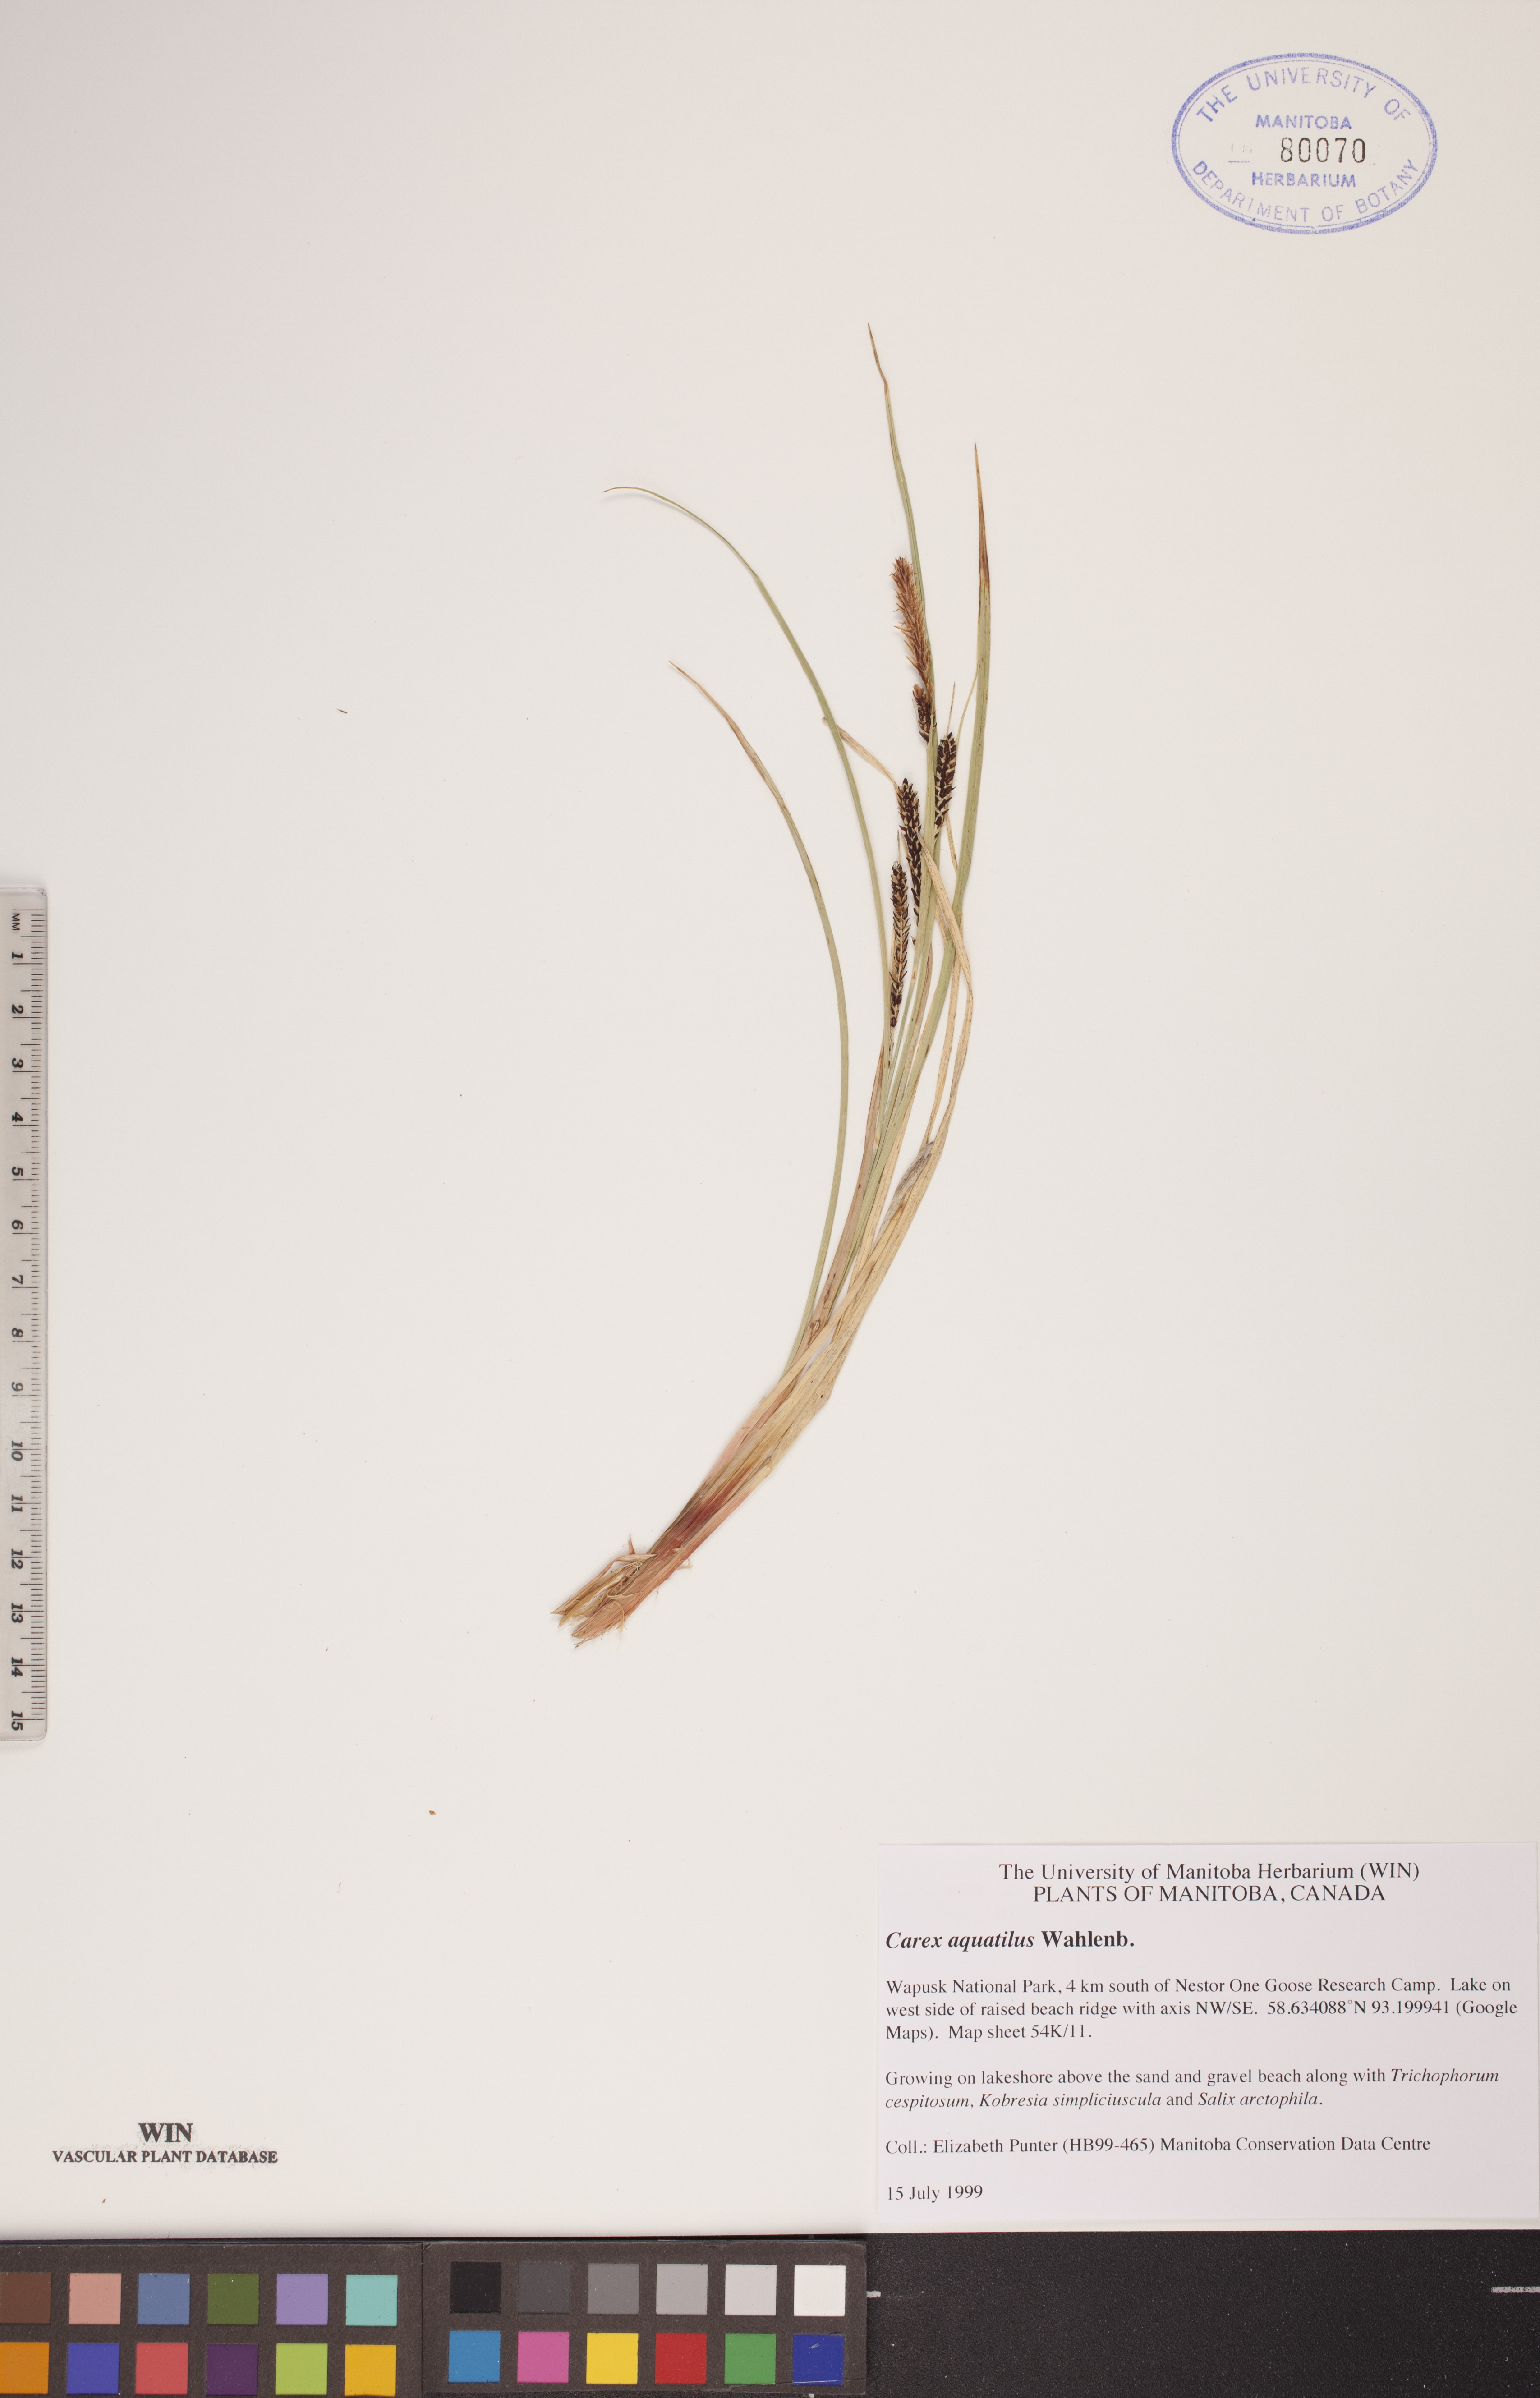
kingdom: Plantae
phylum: Tracheophyta
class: Liliopsida
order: Poales
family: Cyperaceae
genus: Carex
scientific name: Carex aquatilis
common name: Water sedge
